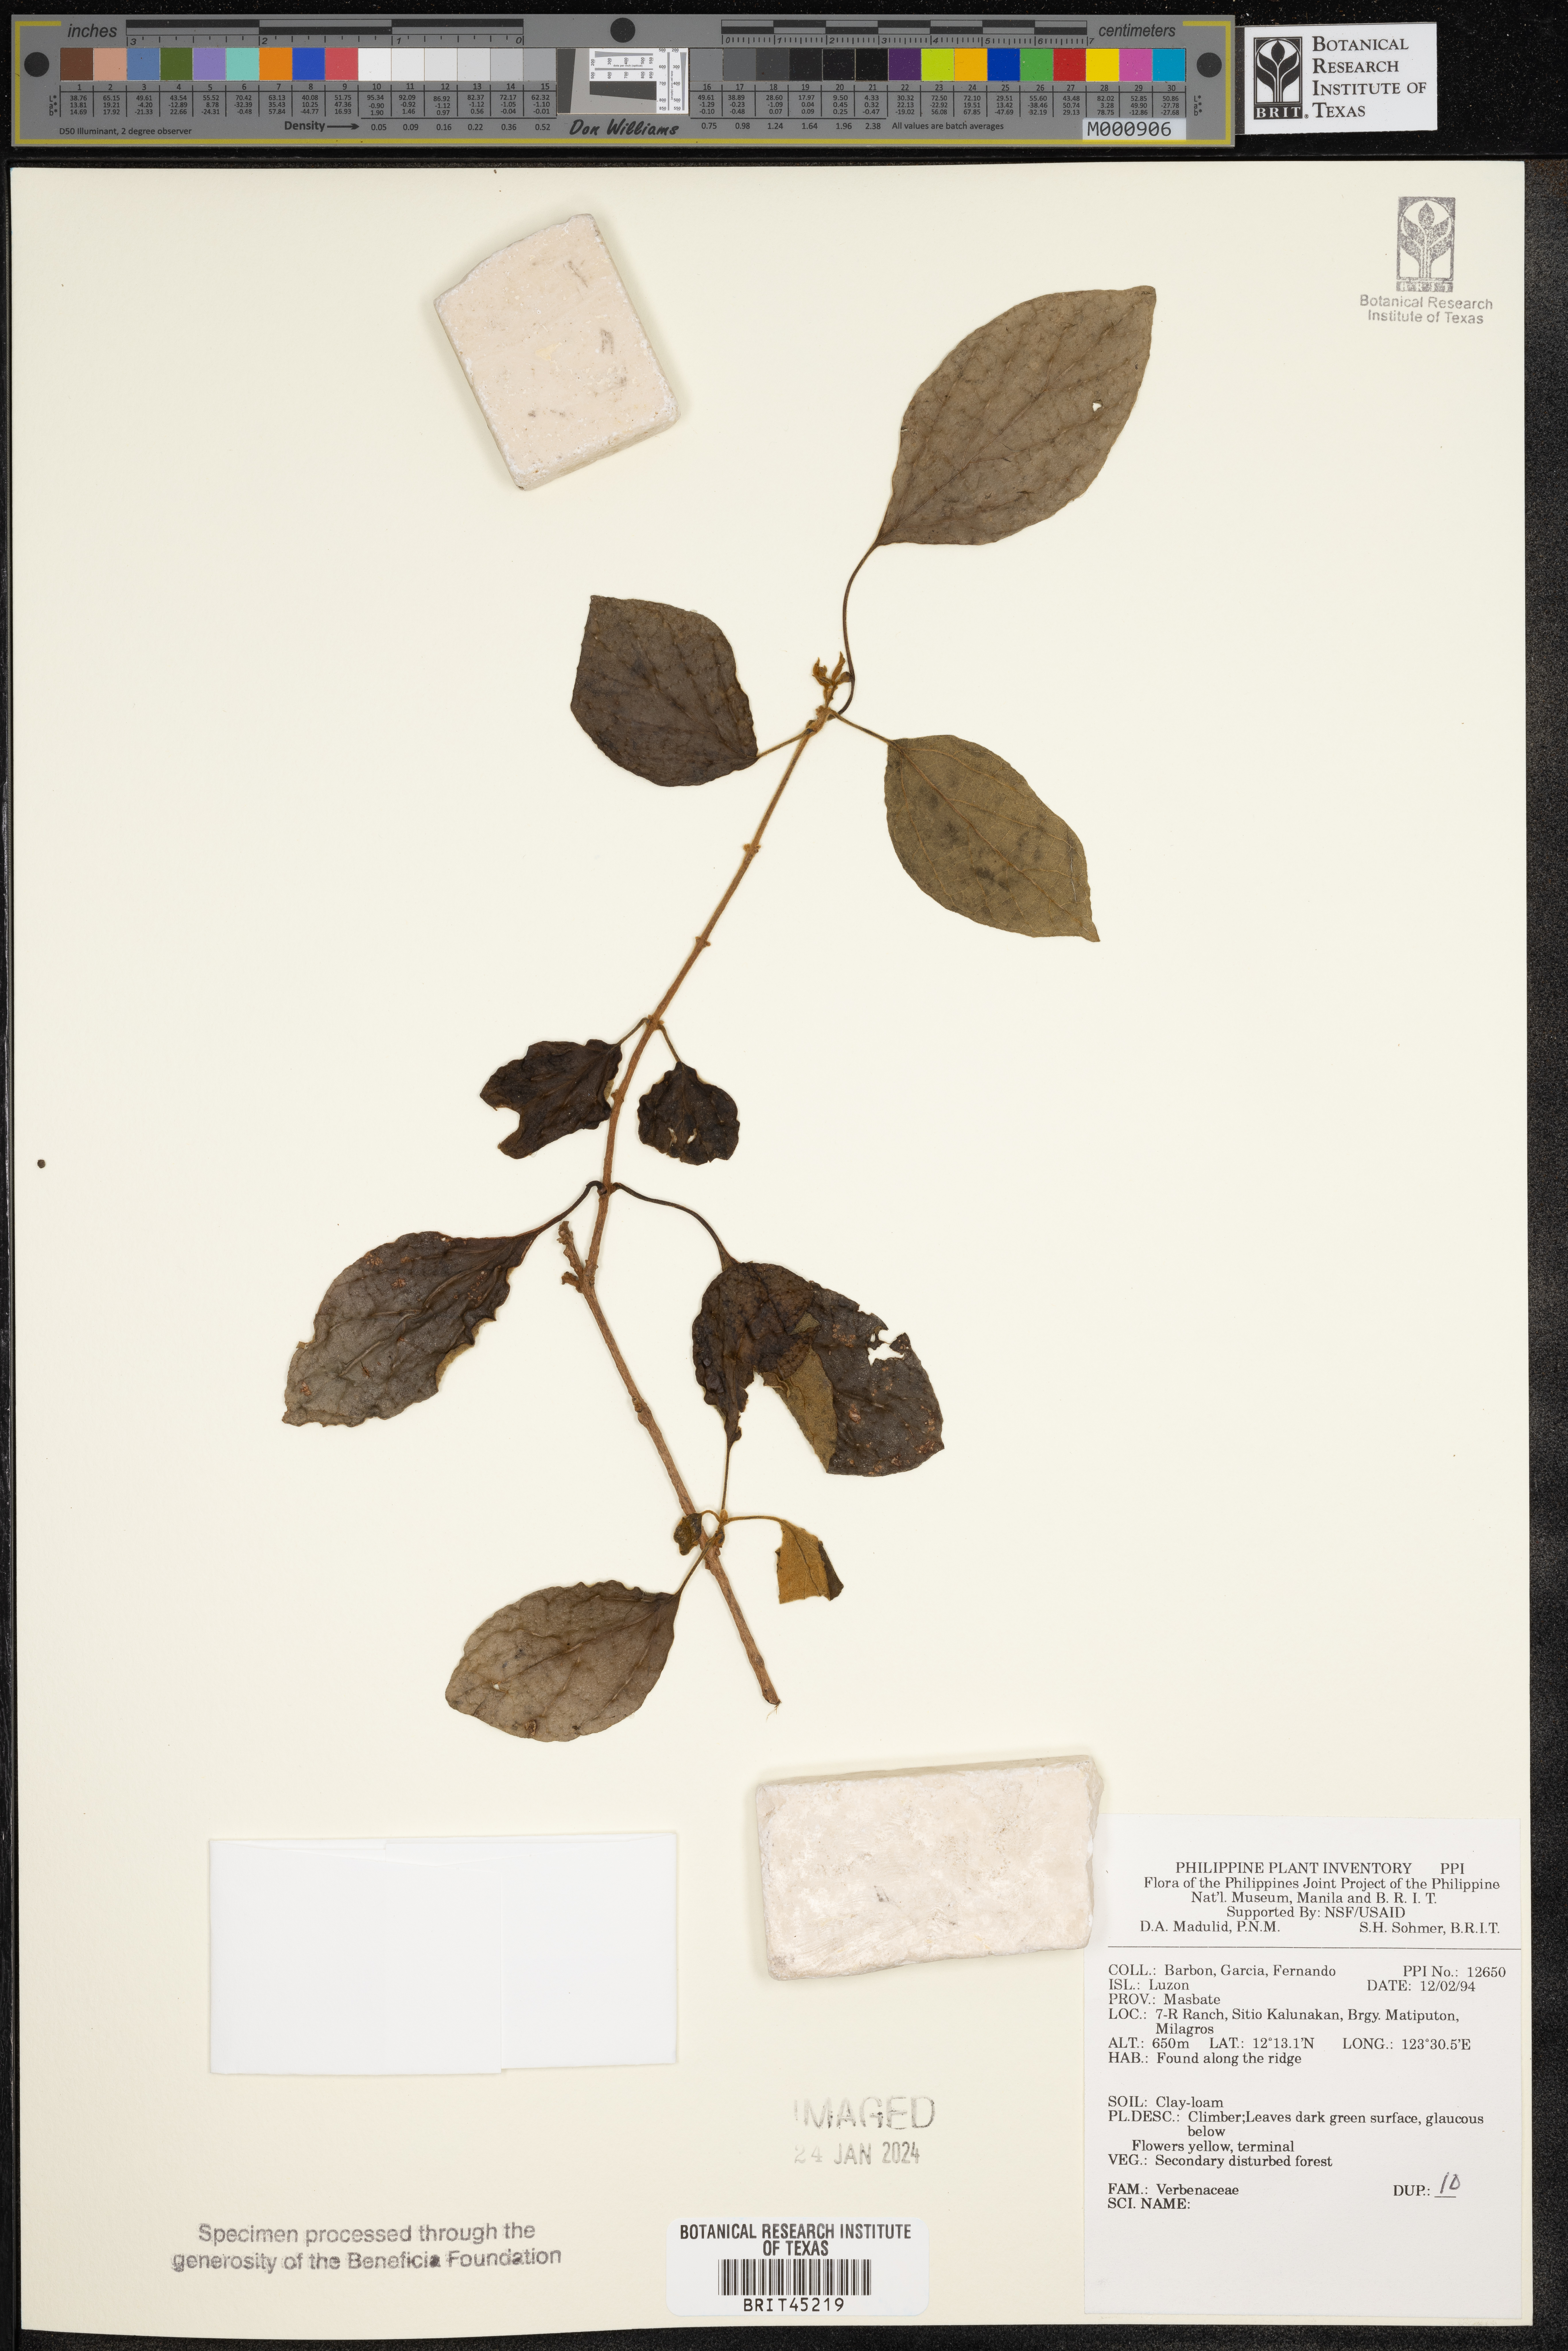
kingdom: Plantae
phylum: Tracheophyta
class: Magnoliopsida
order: Lamiales
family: Verbenaceae
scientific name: Verbenaceae
